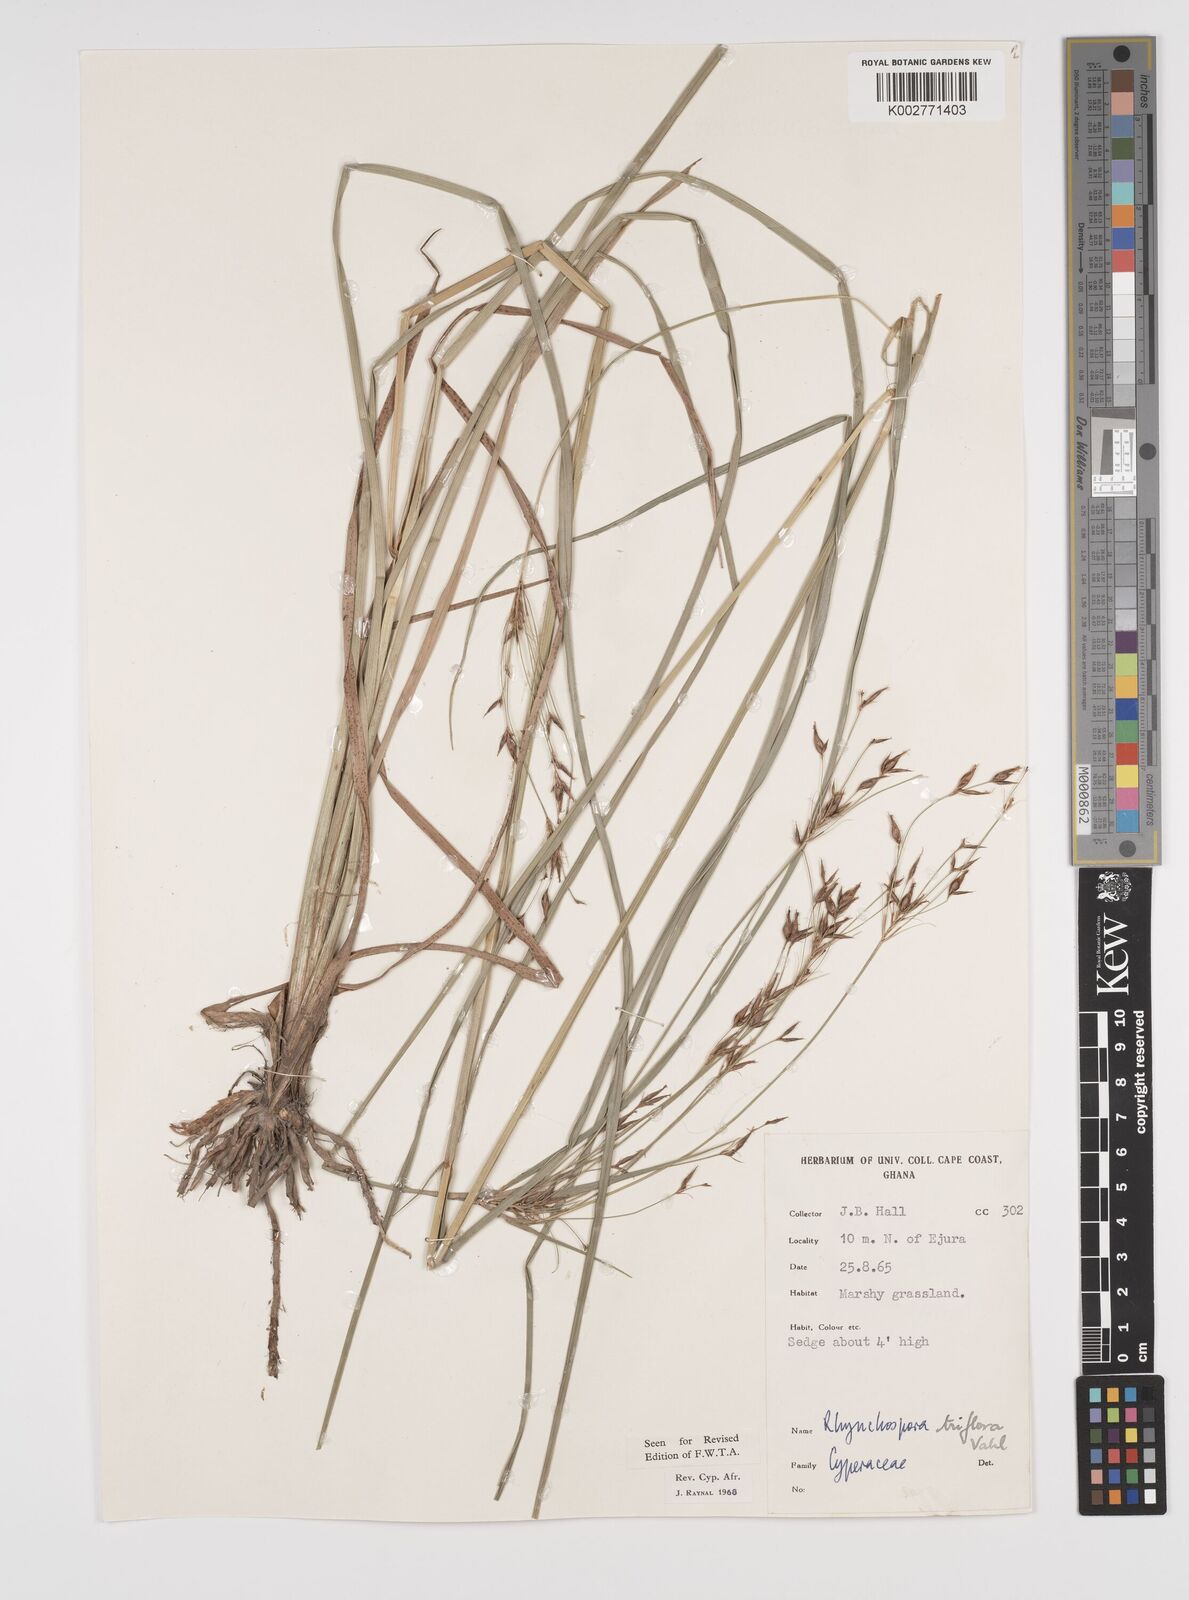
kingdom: Plantae
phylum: Tracheophyta
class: Liliopsida
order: Poales
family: Cyperaceae
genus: Rhynchospora
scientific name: Rhynchospora triflora
